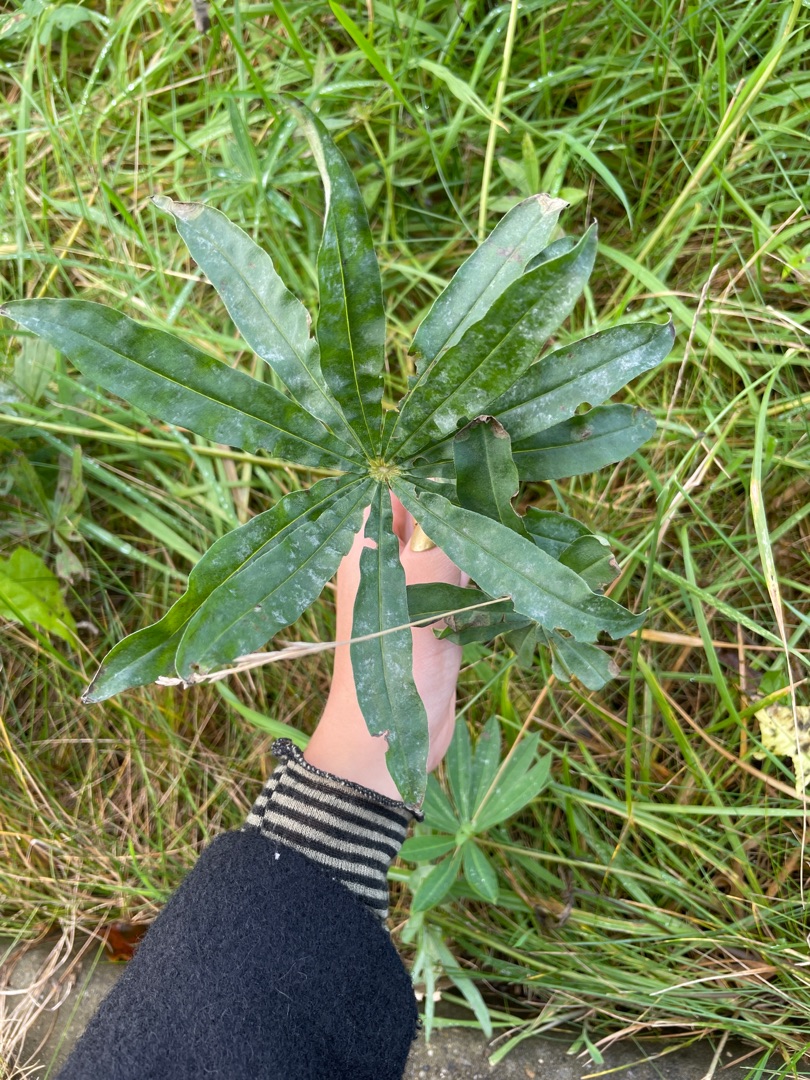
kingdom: Plantae
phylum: Tracheophyta
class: Magnoliopsida
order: Fabales
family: Fabaceae
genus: Lupinus
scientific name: Lupinus polyphyllus
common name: Mangebladet lupin
